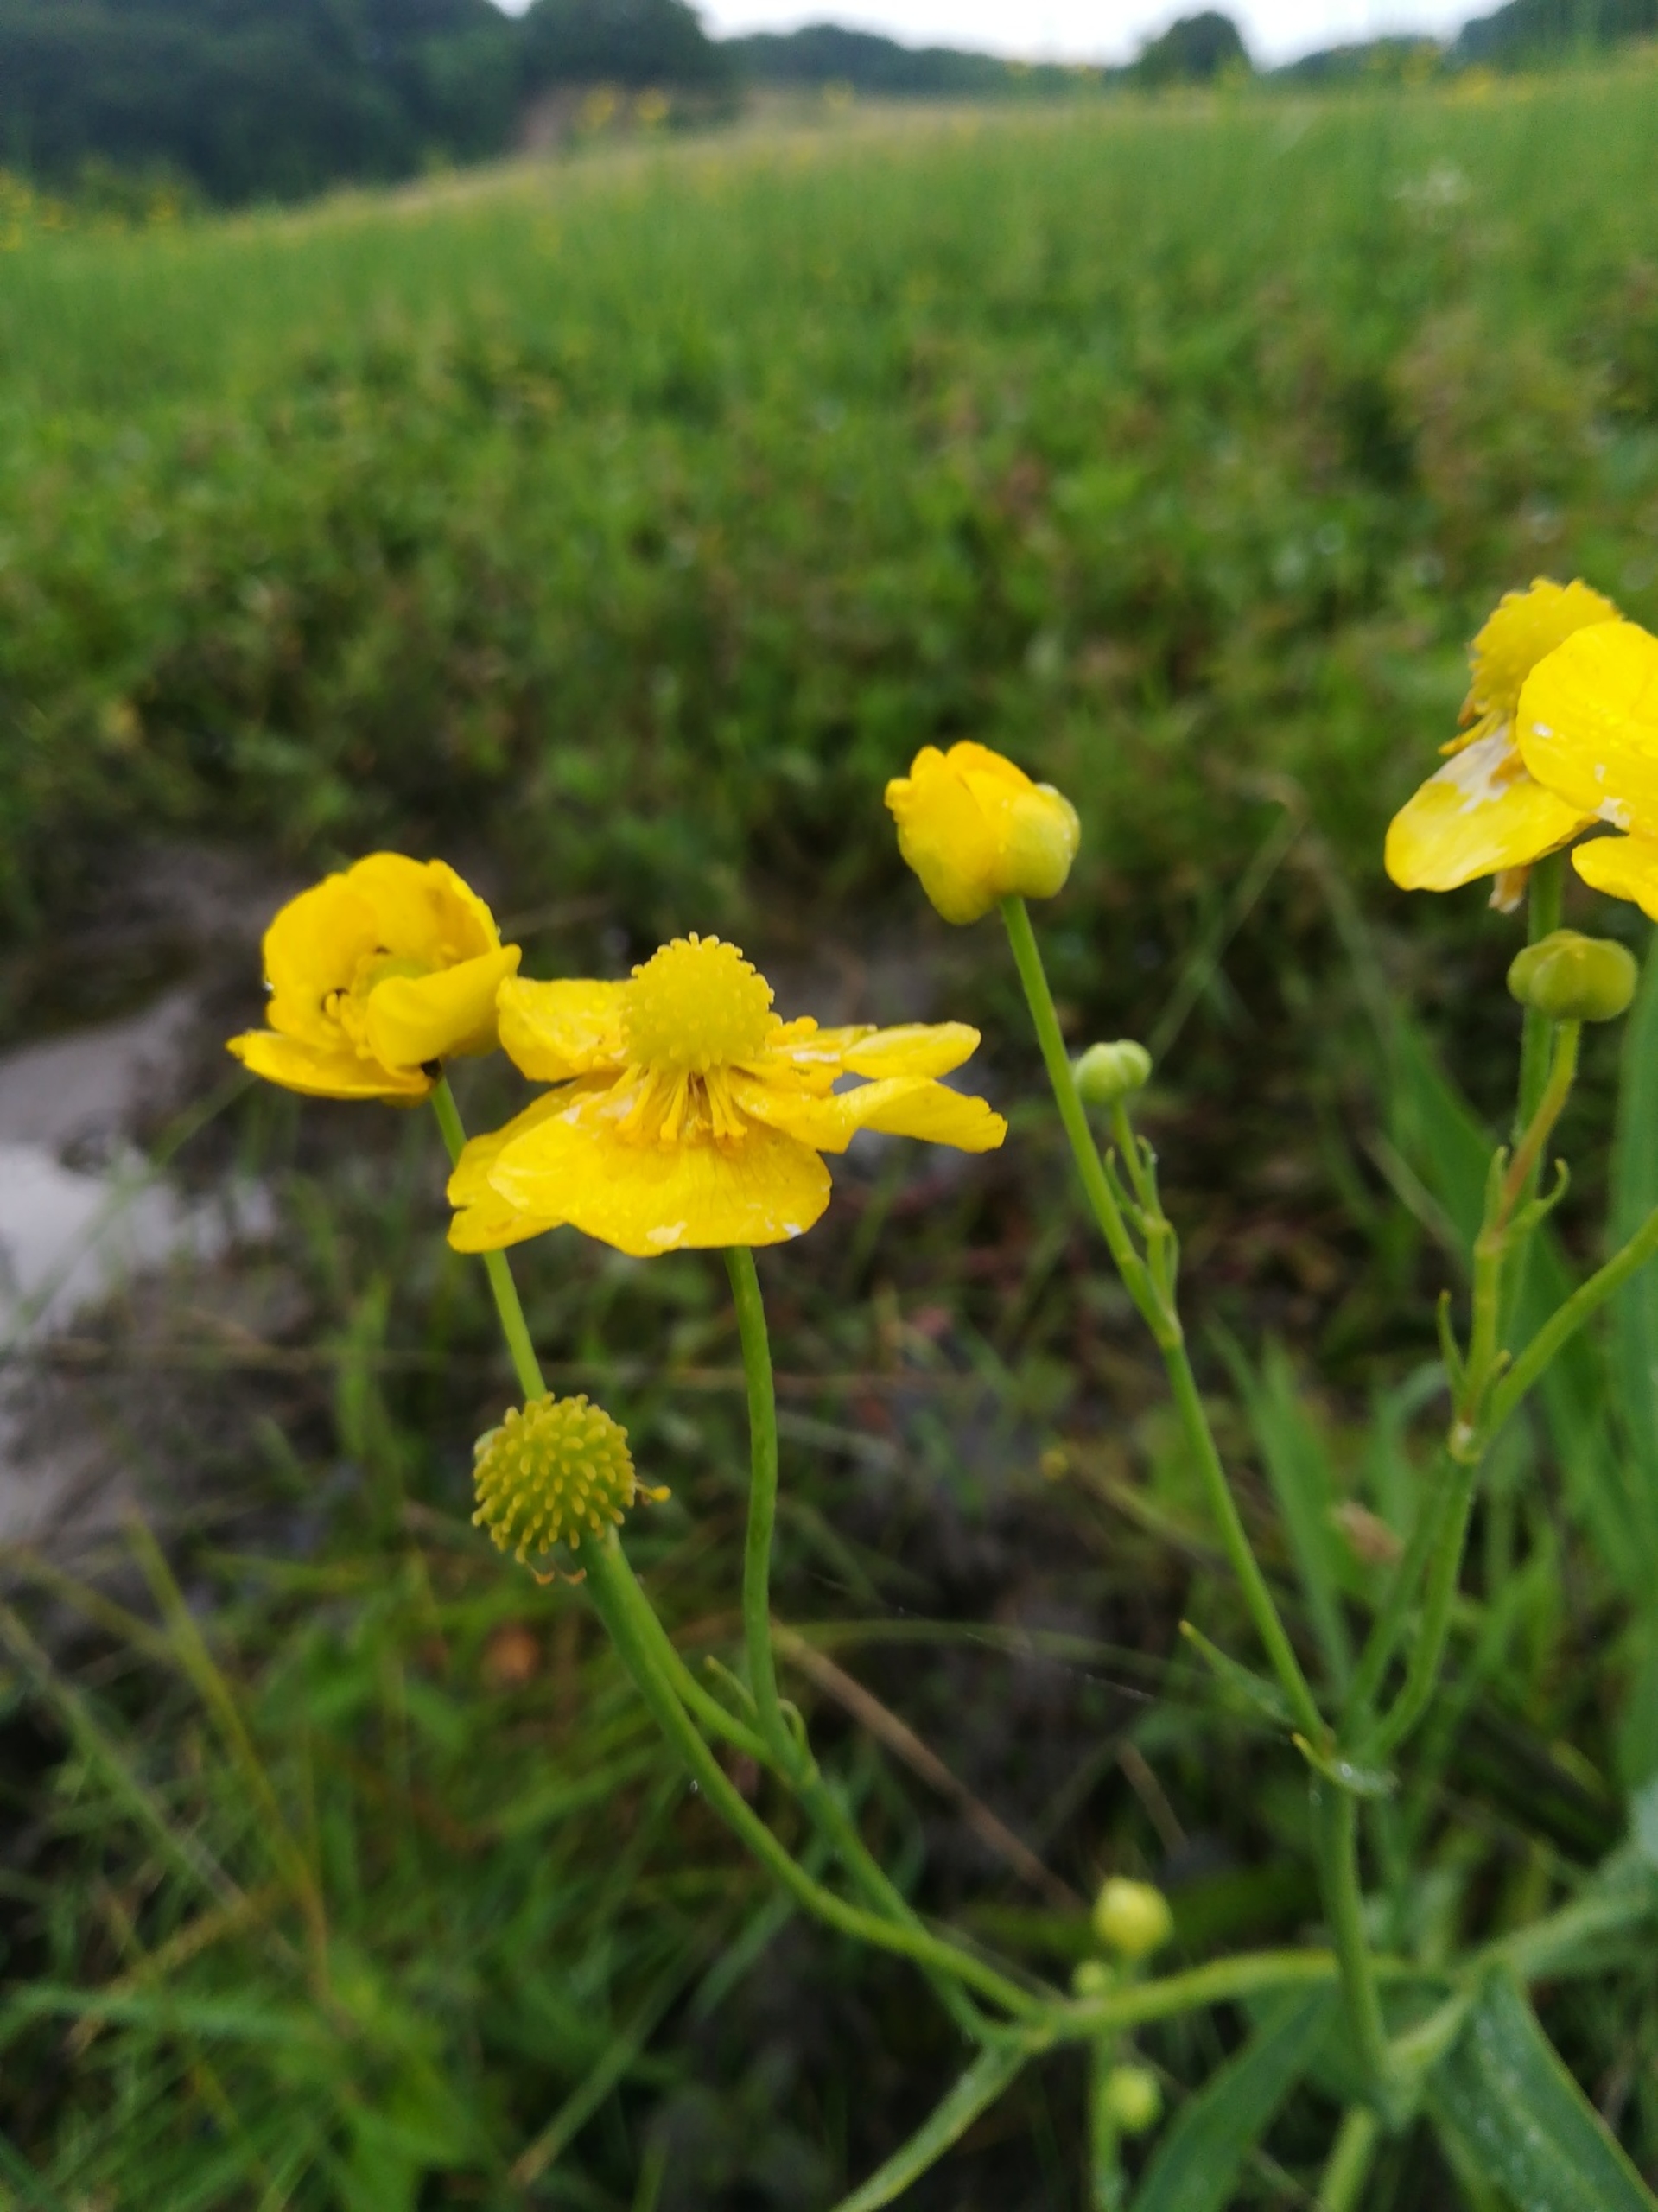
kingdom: Plantae
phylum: Tracheophyta
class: Magnoliopsida
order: Ranunculales
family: Ranunculaceae
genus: Ranunculus
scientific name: Ranunculus lingua
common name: Langbladet ranunkel
